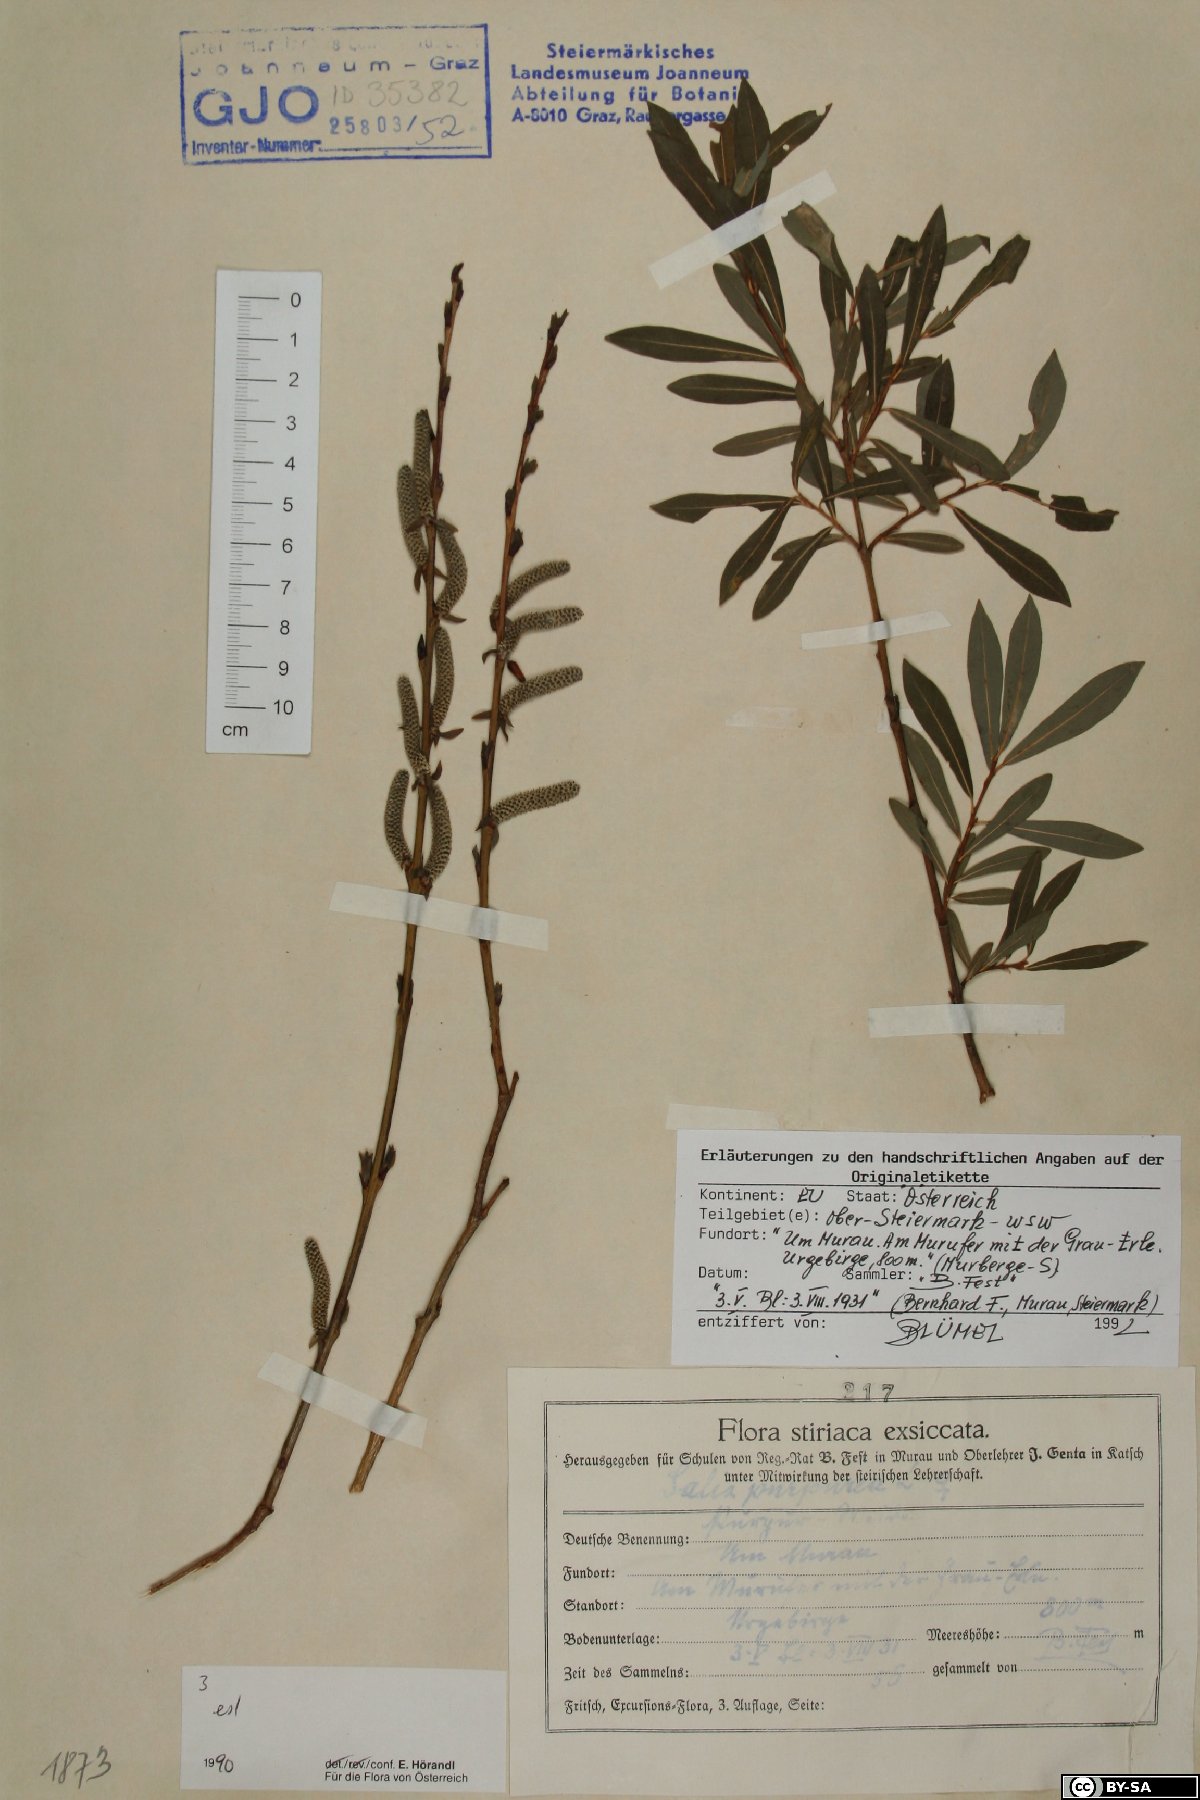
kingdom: Plantae
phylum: Tracheophyta
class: Magnoliopsida
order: Malpighiales
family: Salicaceae
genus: Salix
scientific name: Salix purpurea
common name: Purple willow
